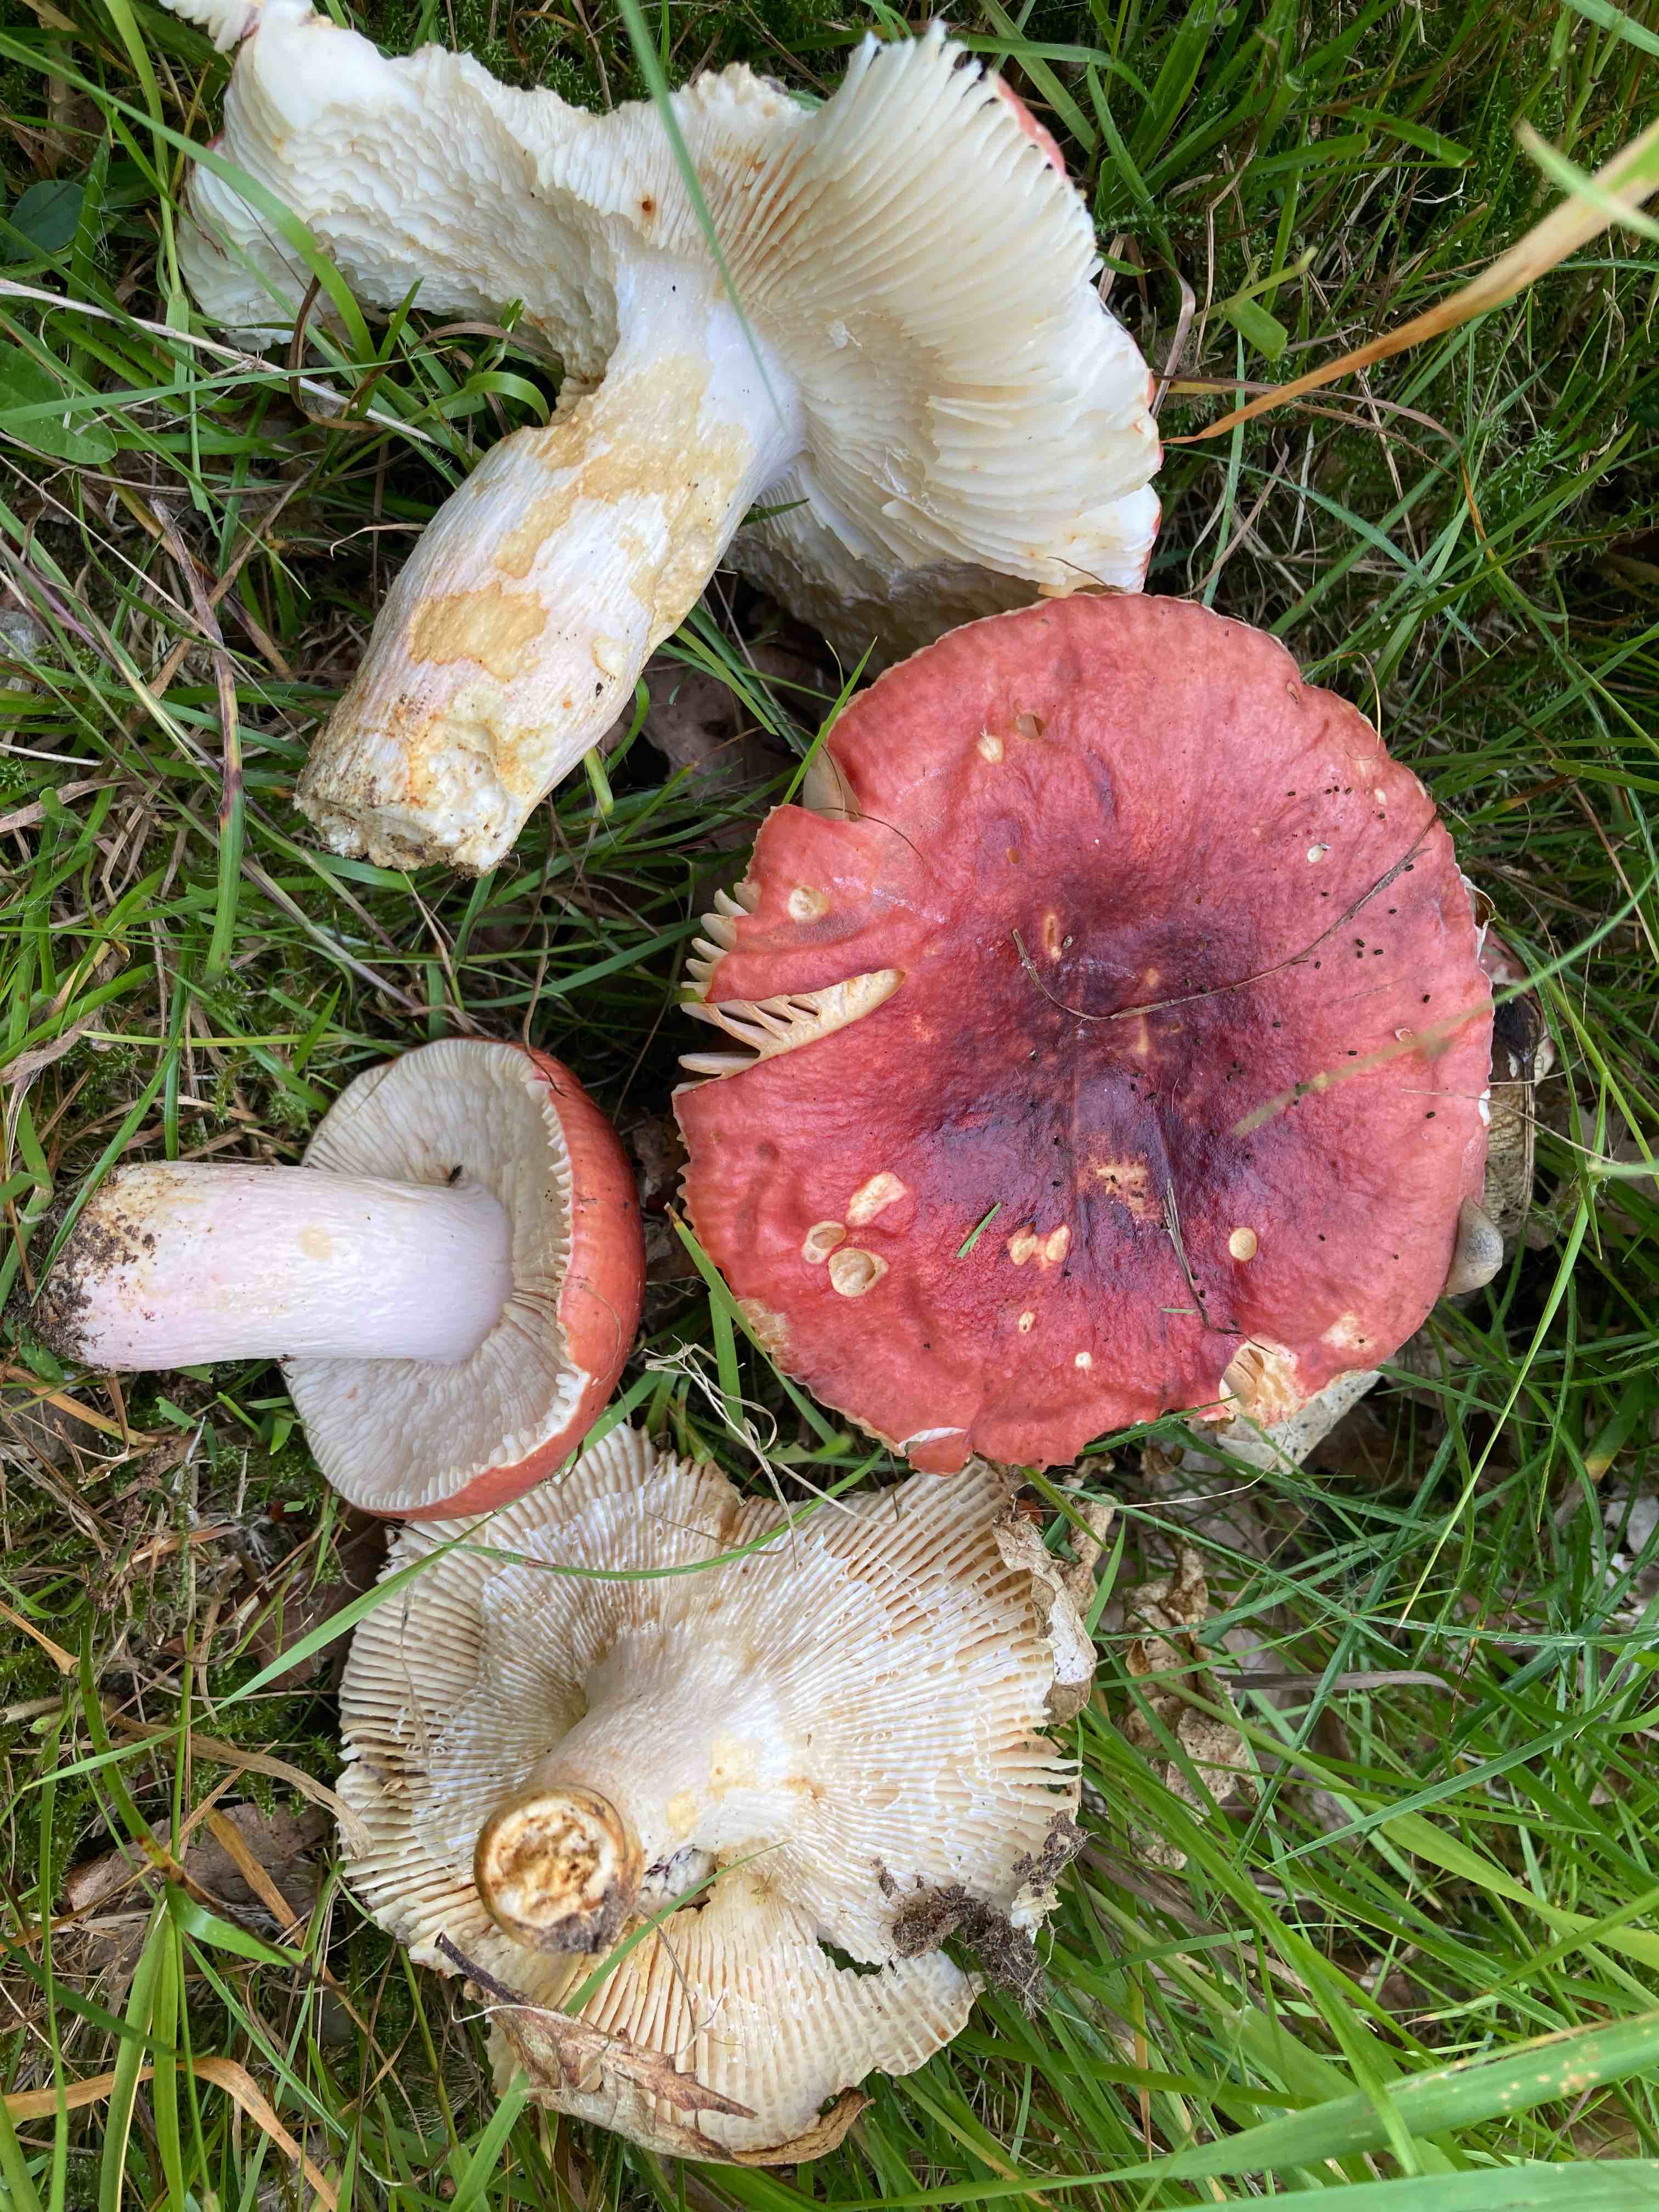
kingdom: Fungi
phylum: Basidiomycota
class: Agaricomycetes
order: Russulales
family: Russulaceae
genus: Russula
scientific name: Russula melliolens
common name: honning-skørhat
